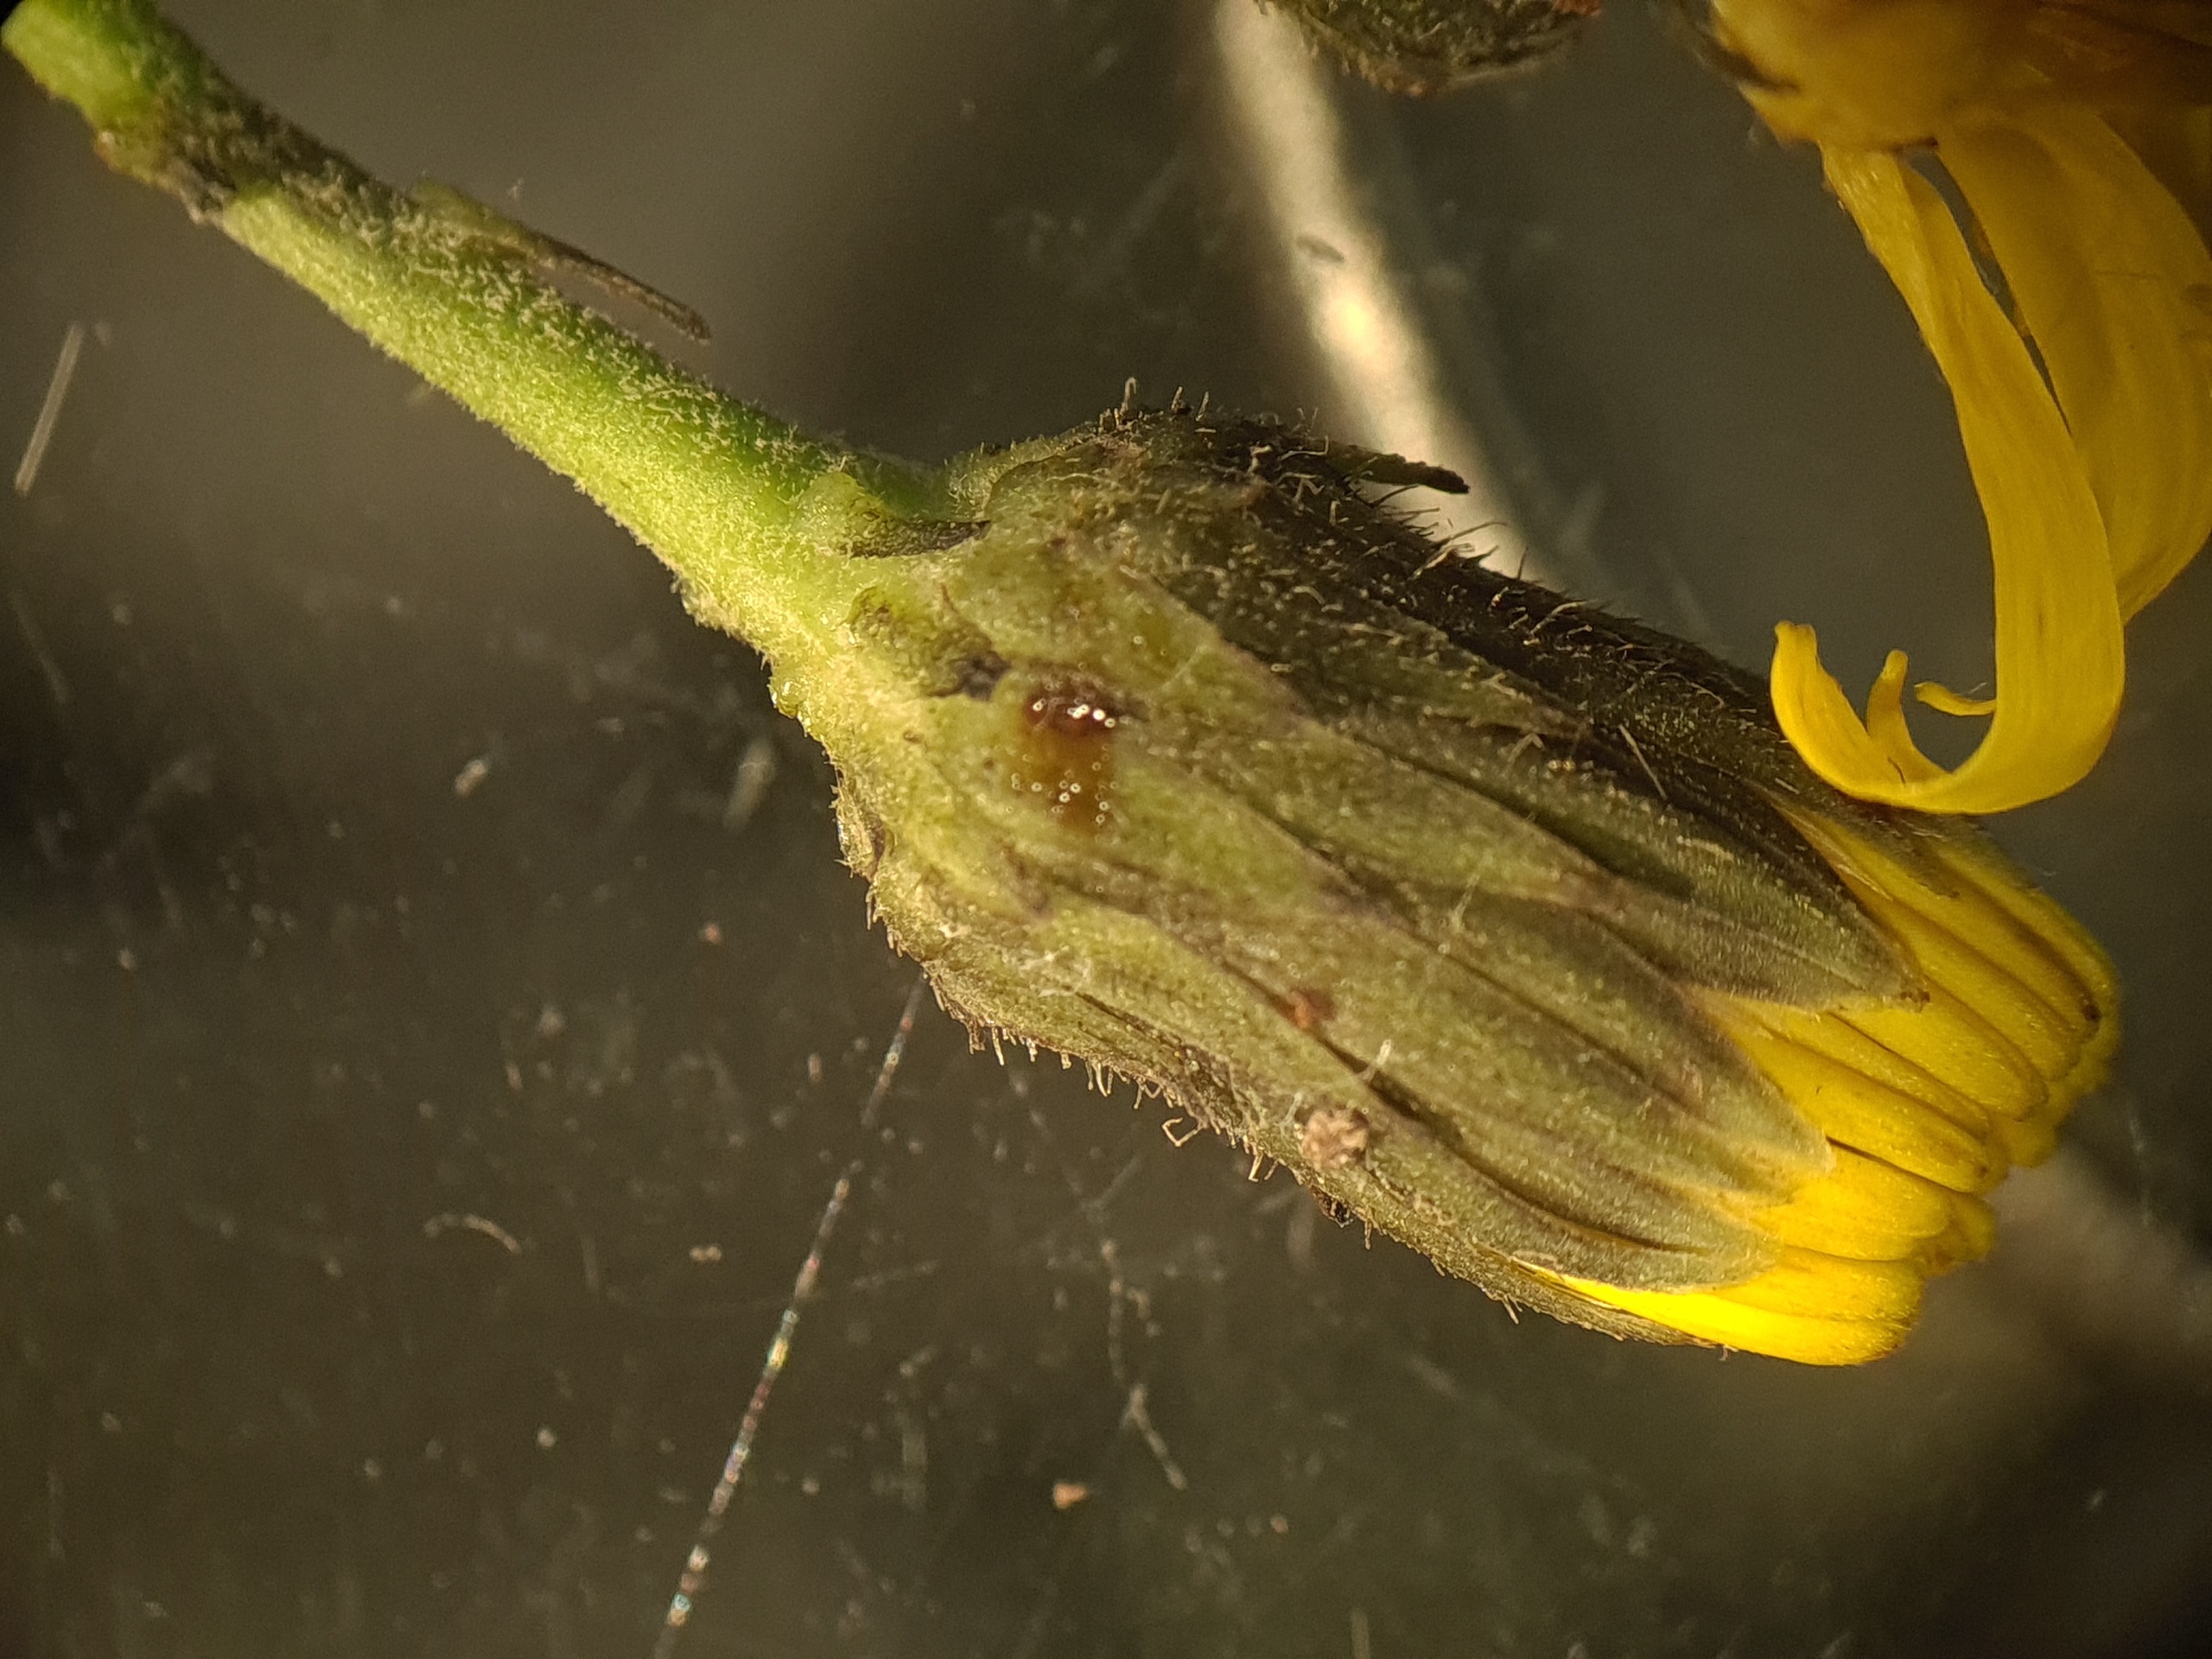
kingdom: Plantae
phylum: Tracheophyta
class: Magnoliopsida
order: Asterales
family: Asteraceae
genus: Hieracium
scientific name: Hieracium sabaudum
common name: Bredbladet høgeurt
